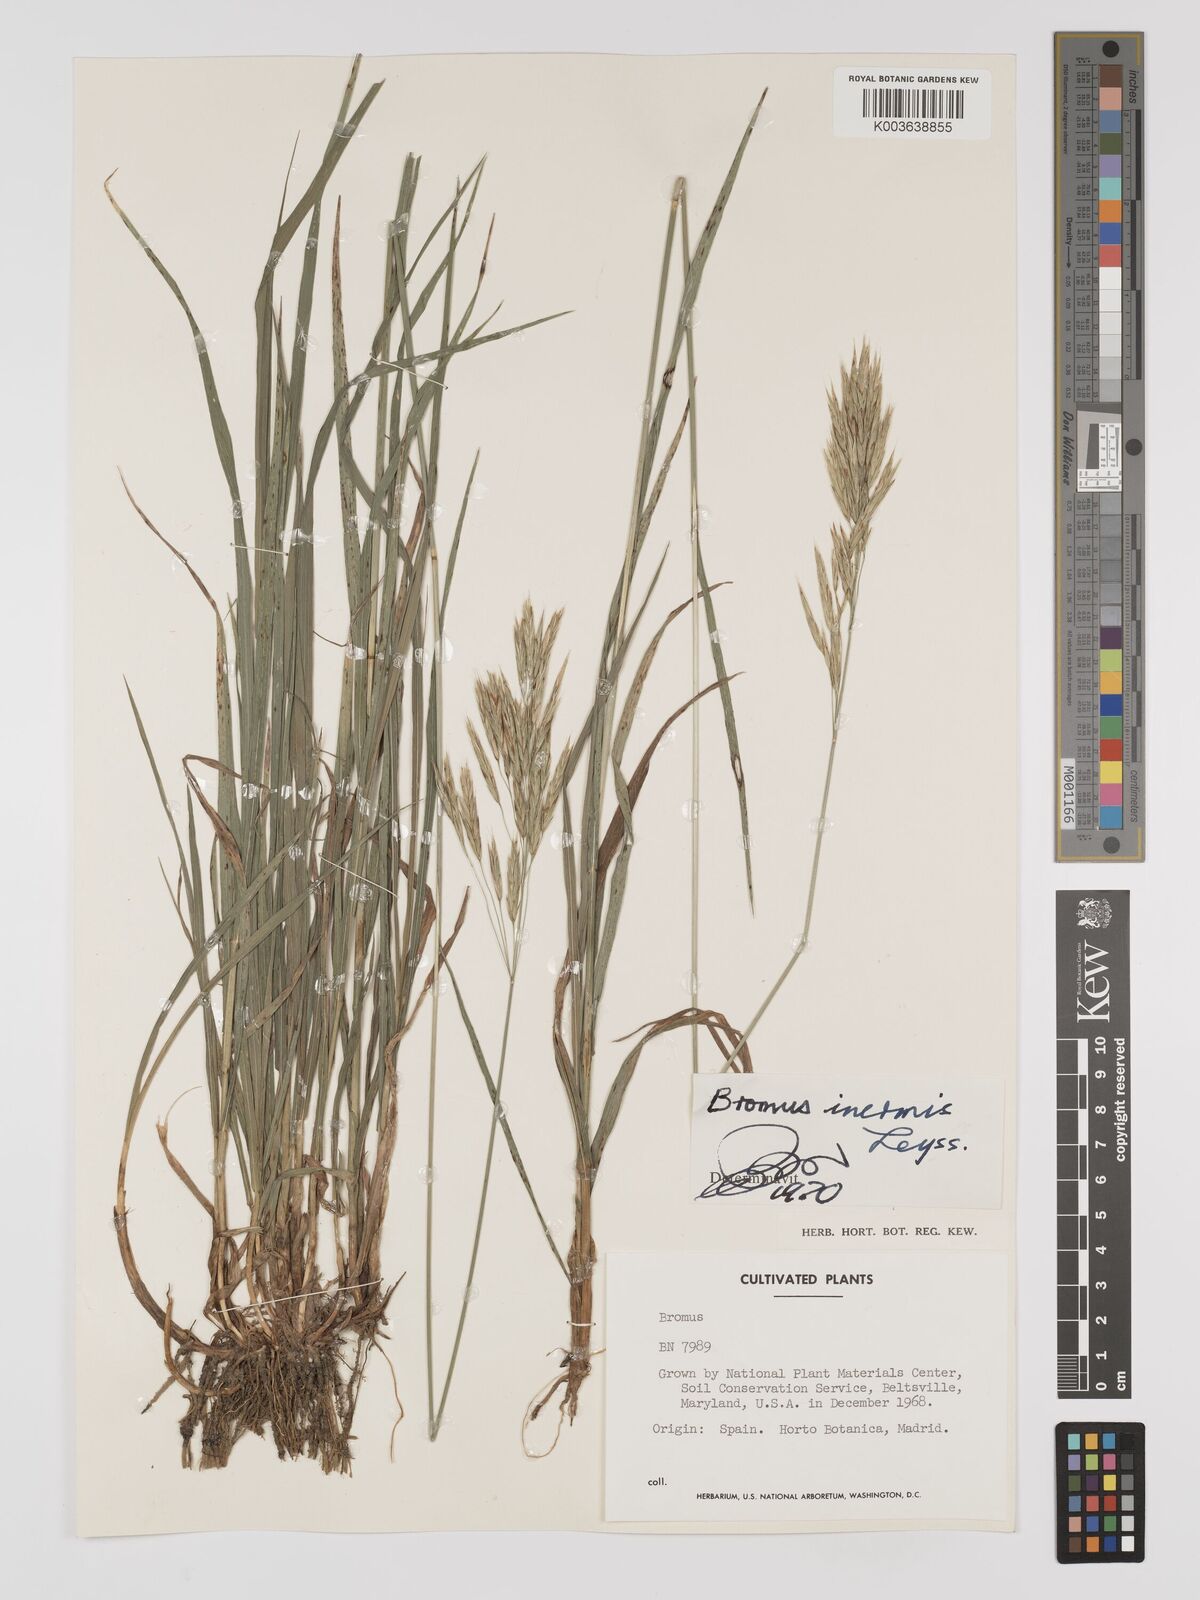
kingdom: Plantae
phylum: Tracheophyta
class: Liliopsida
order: Poales
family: Poaceae
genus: Bromus
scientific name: Bromus inermis
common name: Smooth brome
